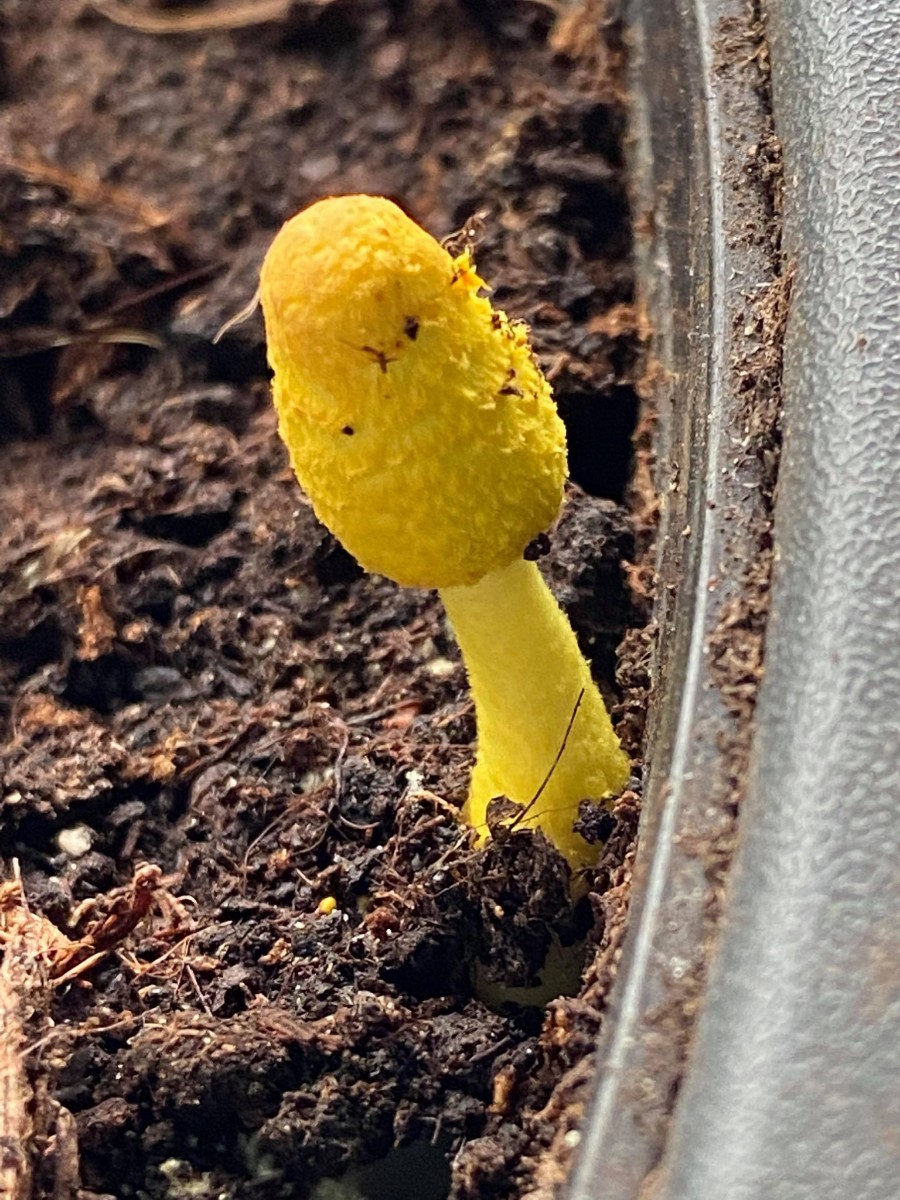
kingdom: Fungi
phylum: Basidiomycota
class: Agaricomycetes
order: Agaricales
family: Agaricaceae
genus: Leucocoprinus
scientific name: Leucocoprinus birnbaumii
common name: gul silkehat
